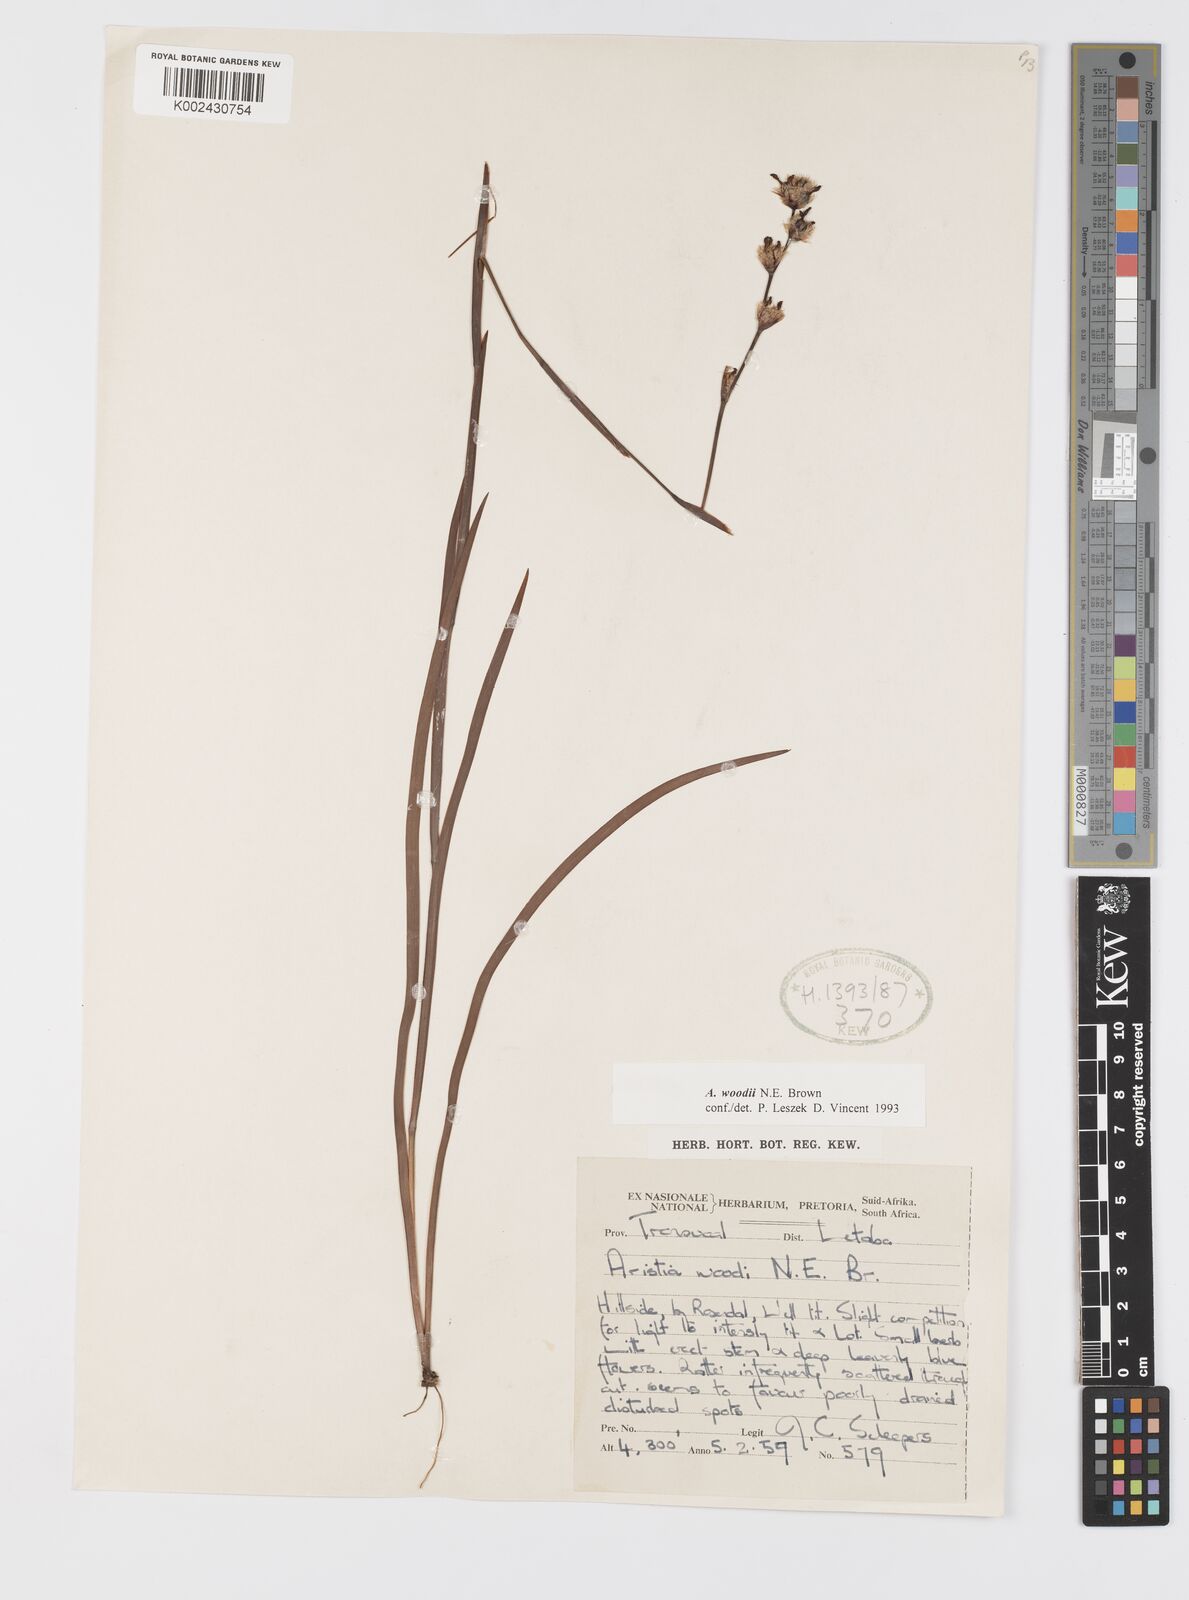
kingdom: Plantae
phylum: Tracheophyta
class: Liliopsida
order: Asparagales
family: Iridaceae
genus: Aristea
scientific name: Aristea torulosa
